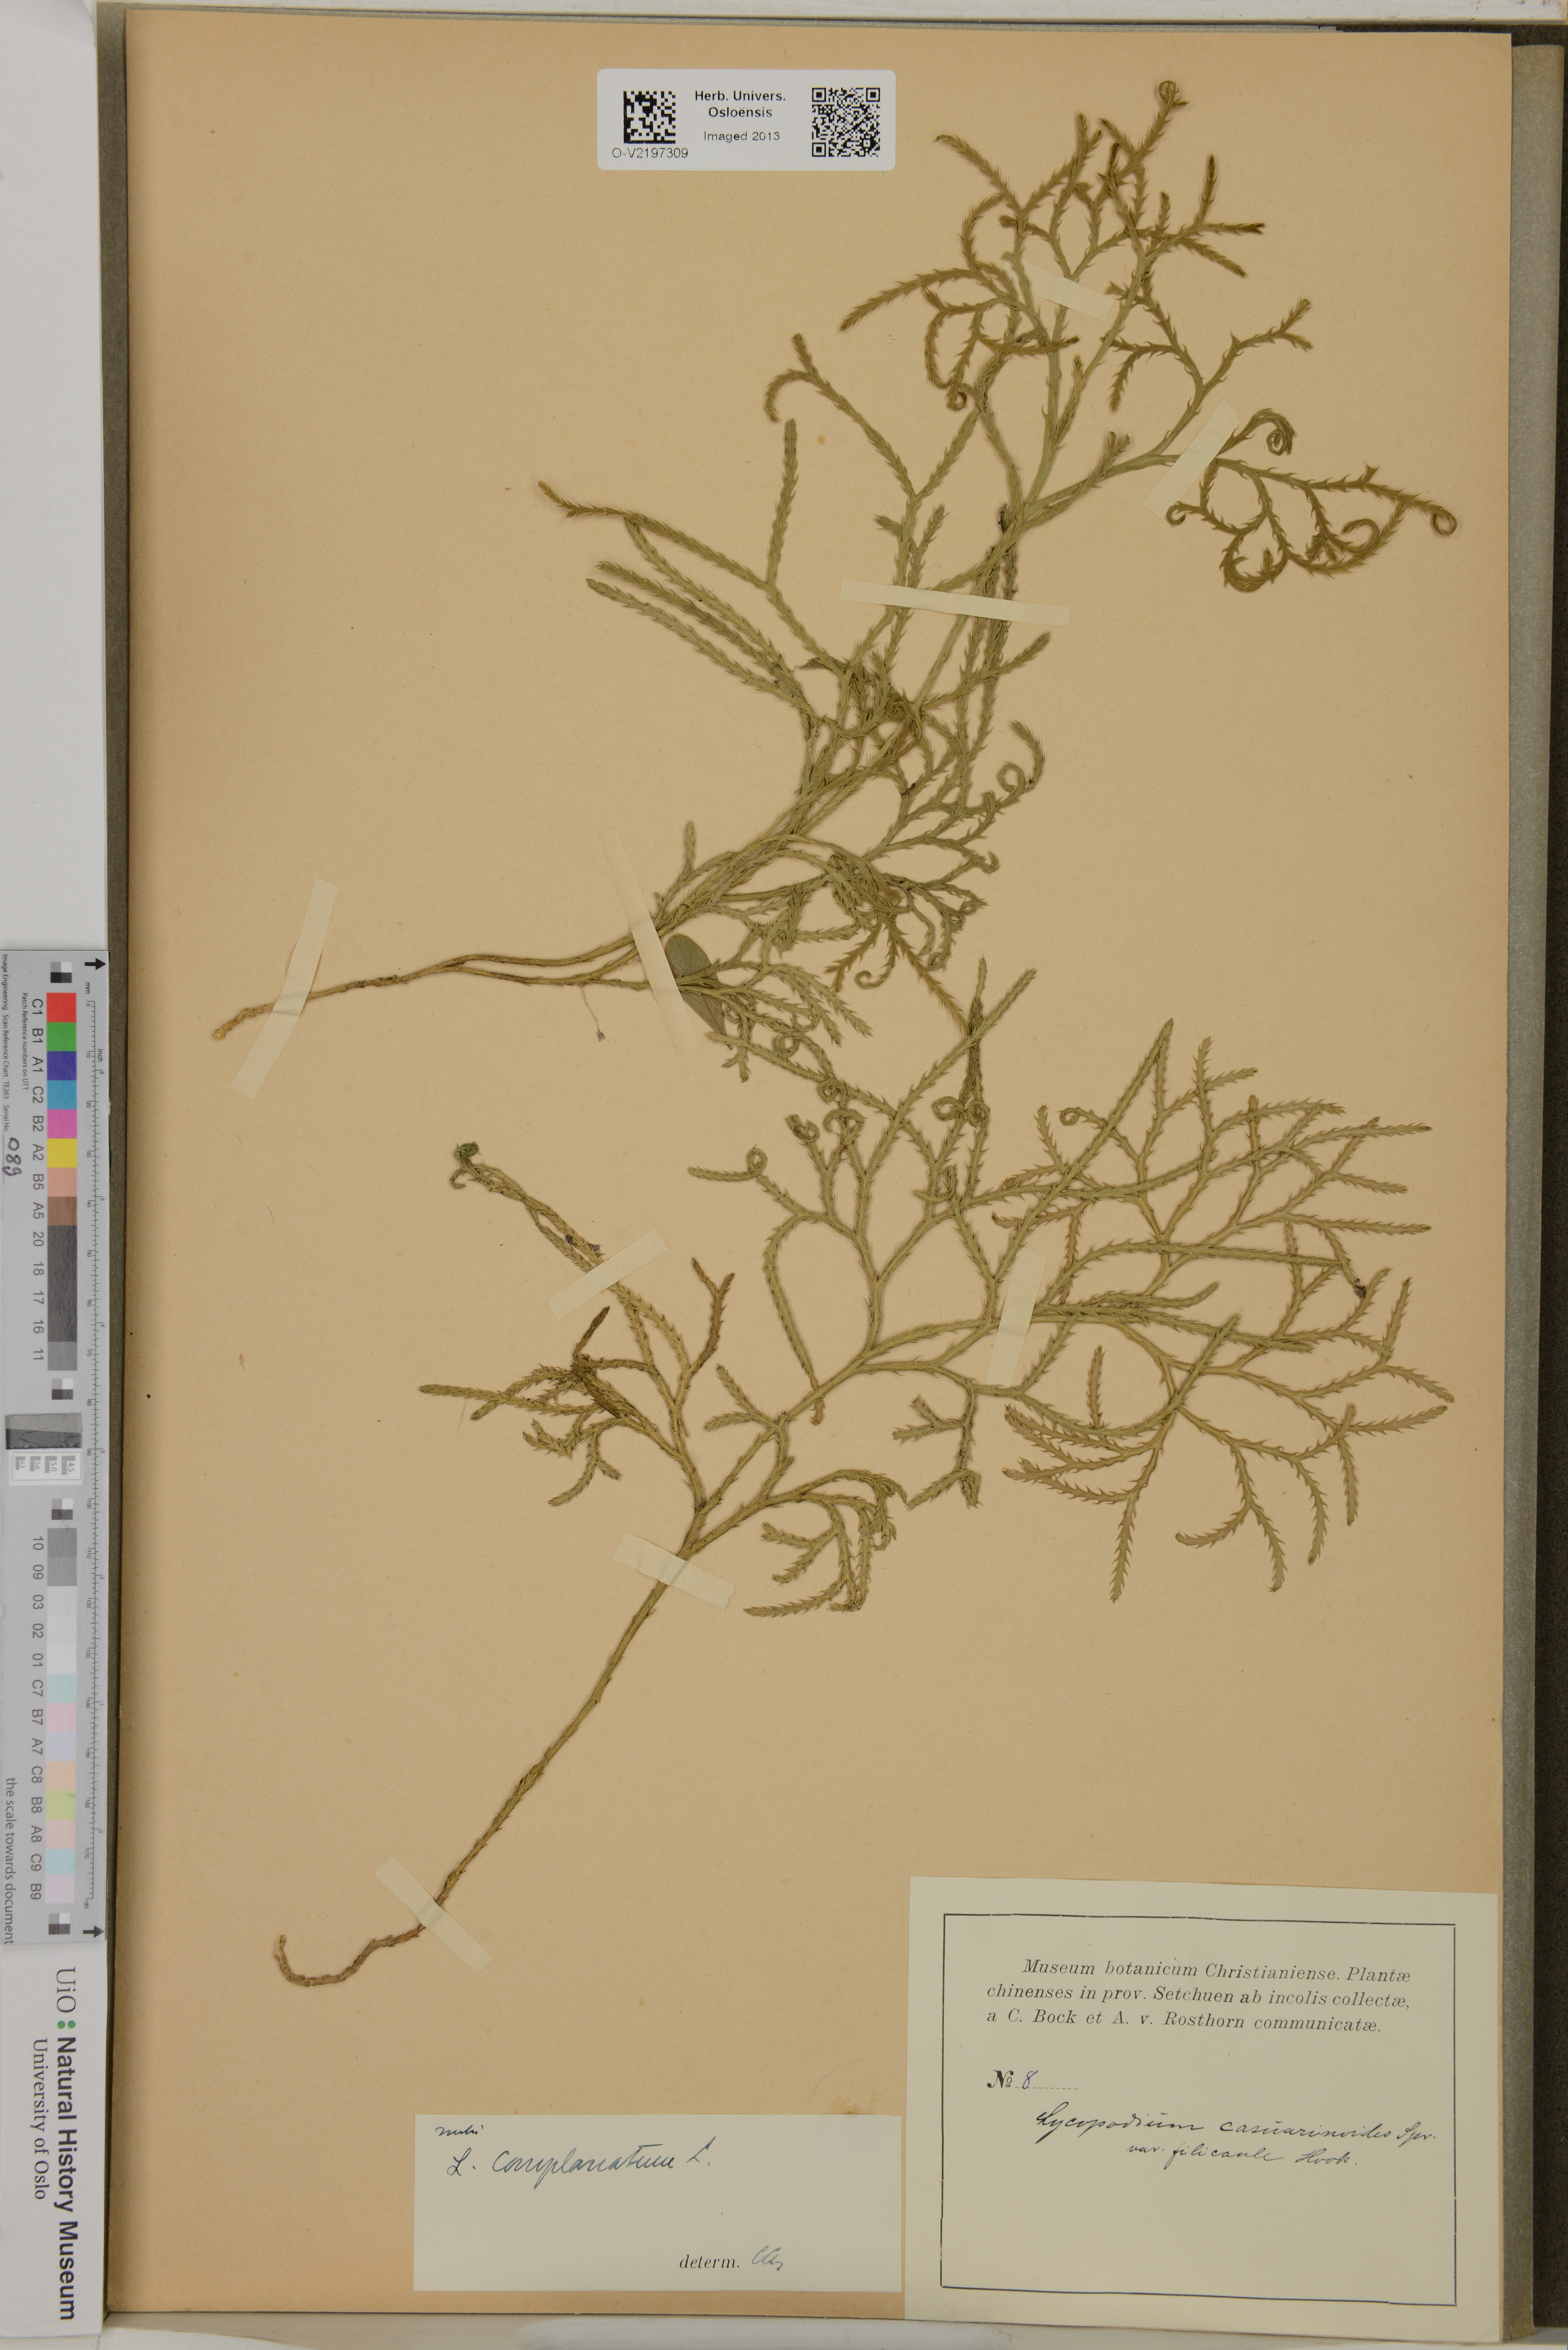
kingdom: Plantae
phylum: Tracheophyta
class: Lycopodiopsida
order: Lycopodiales
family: Lycopodiaceae
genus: Lycopodiastrum
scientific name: Lycopodiastrum casuarinoides
